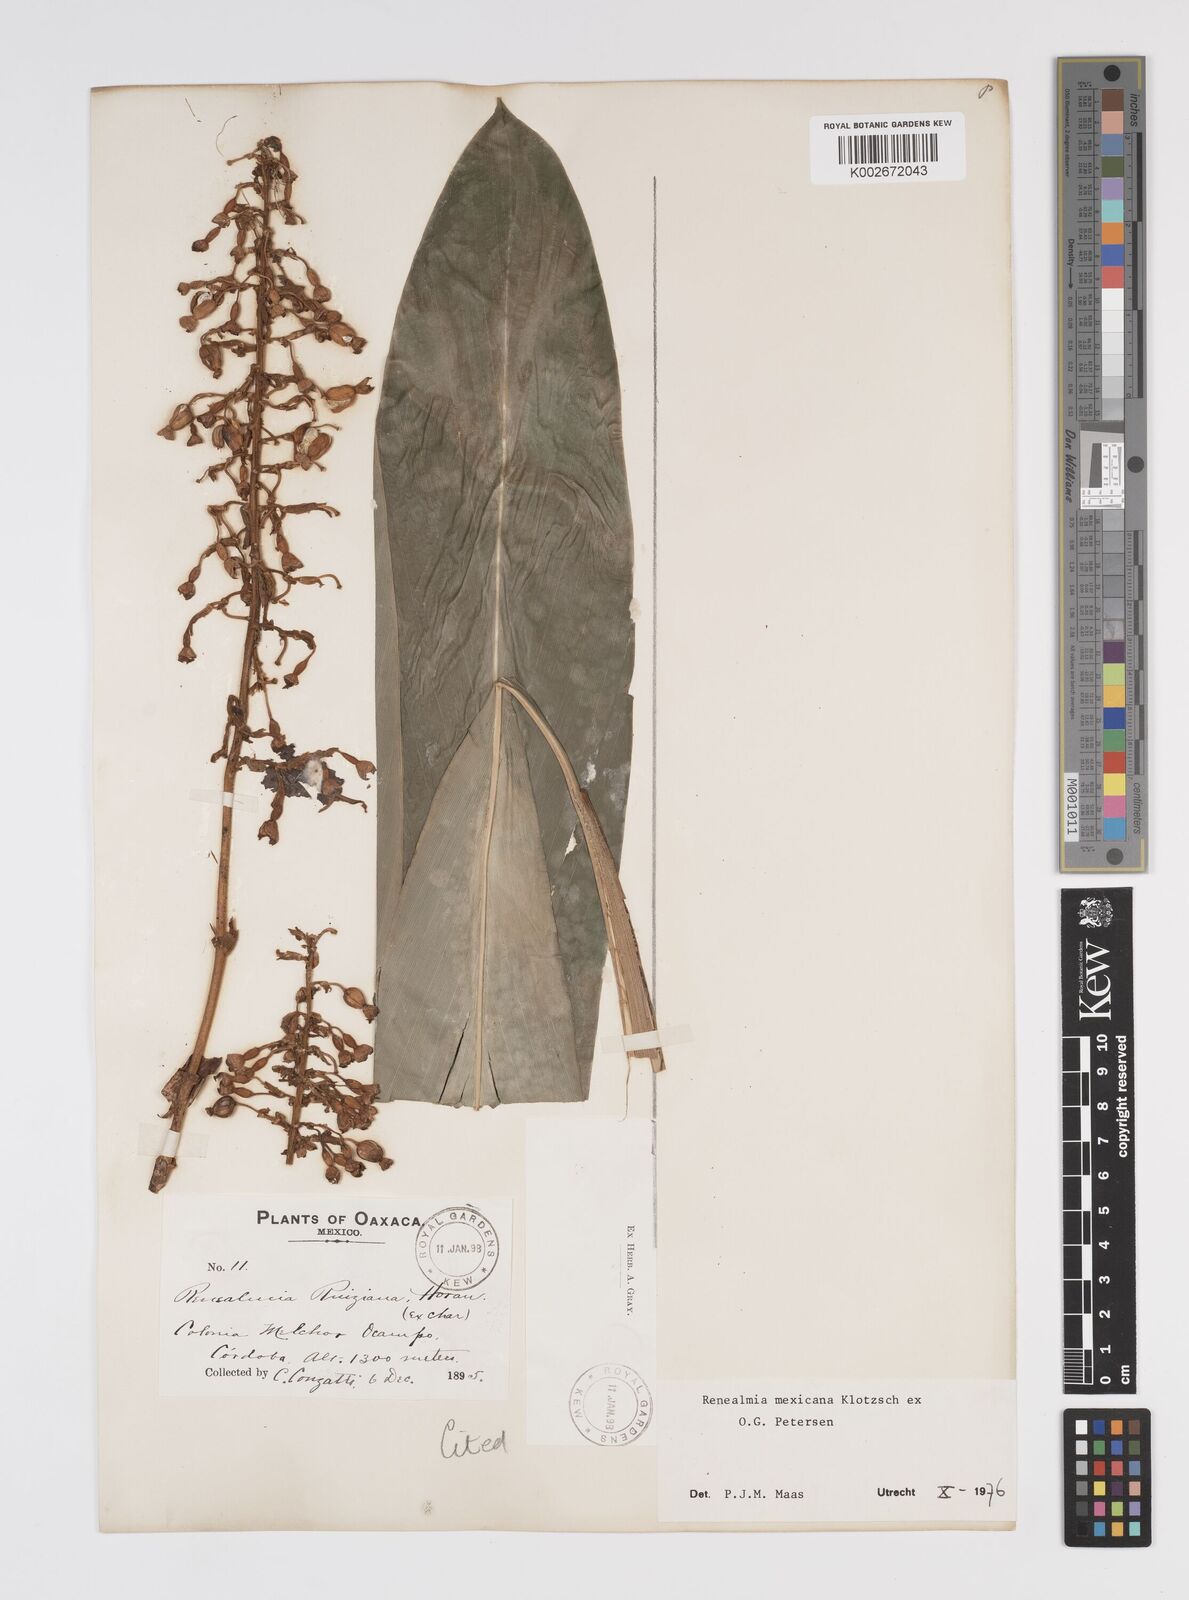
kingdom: Plantae
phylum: Tracheophyta
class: Liliopsida
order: Zingiberales
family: Zingiberaceae
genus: Renealmia
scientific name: Renealmia mexicana
